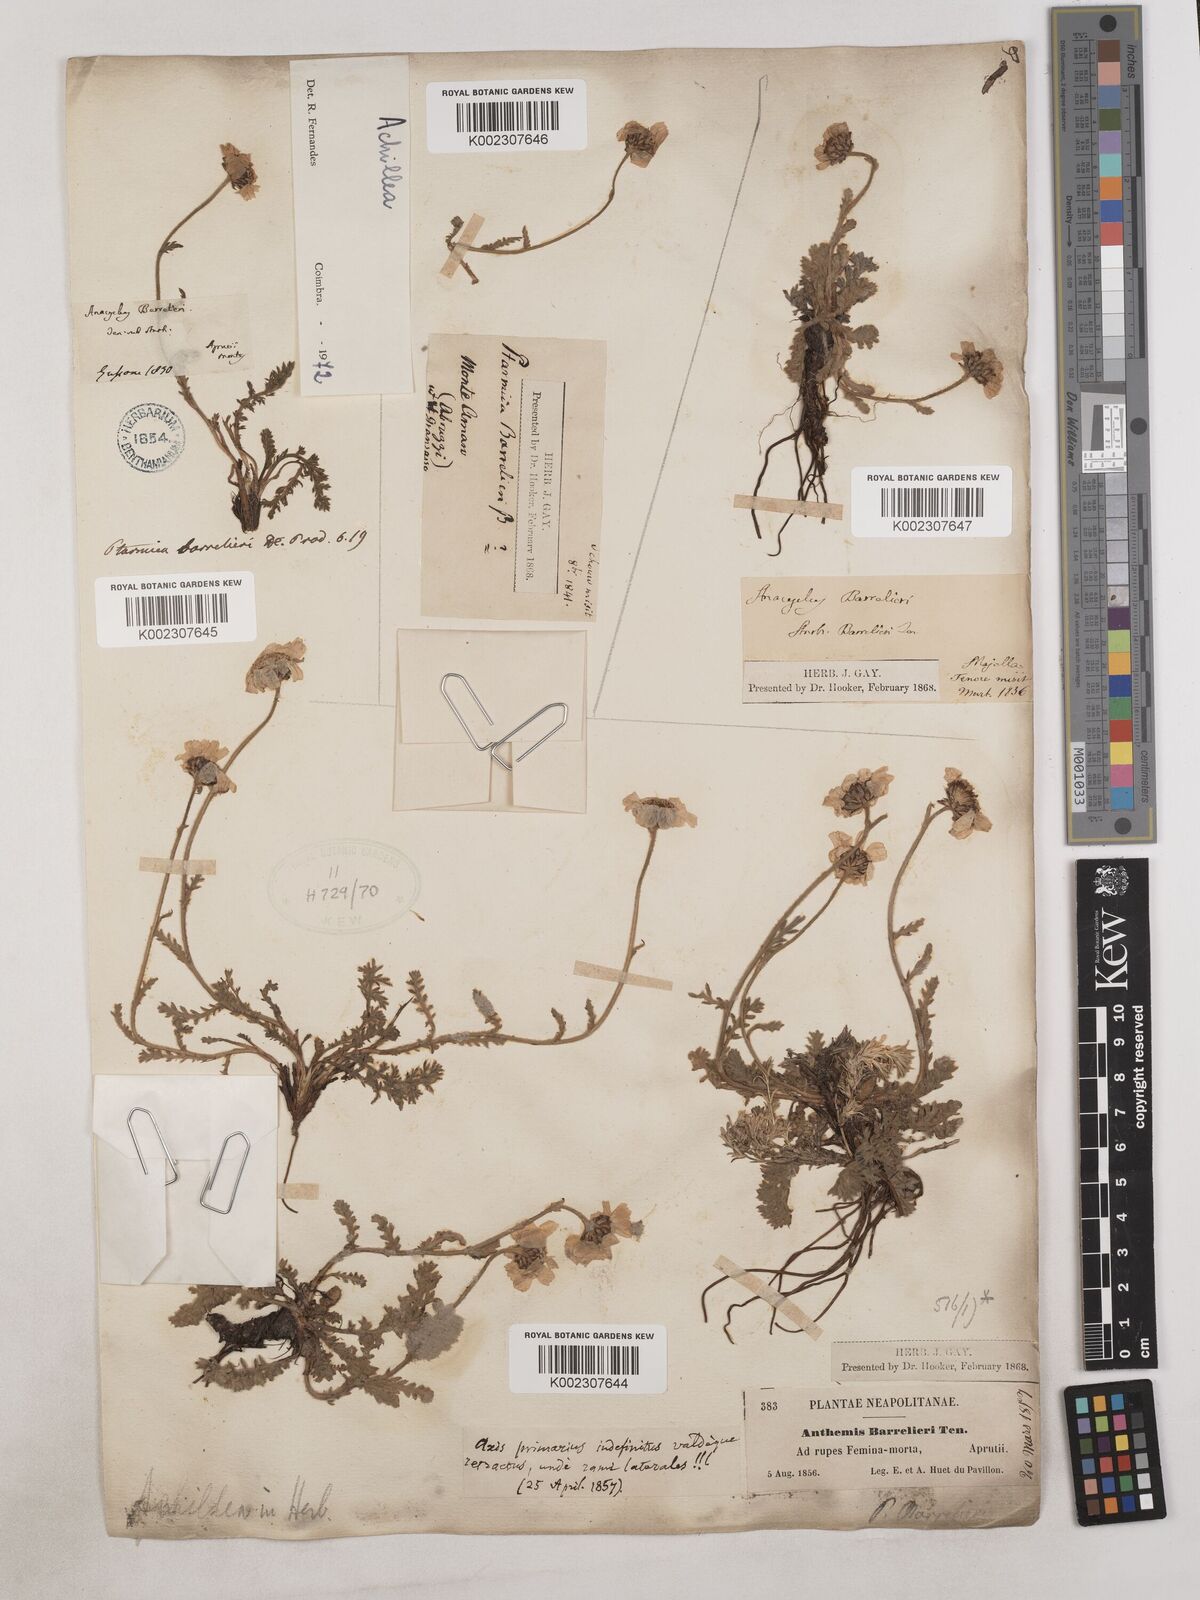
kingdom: Plantae
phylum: Tracheophyta
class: Magnoliopsida
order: Asterales
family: Asteraceae
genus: Achillea
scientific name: Achillea
